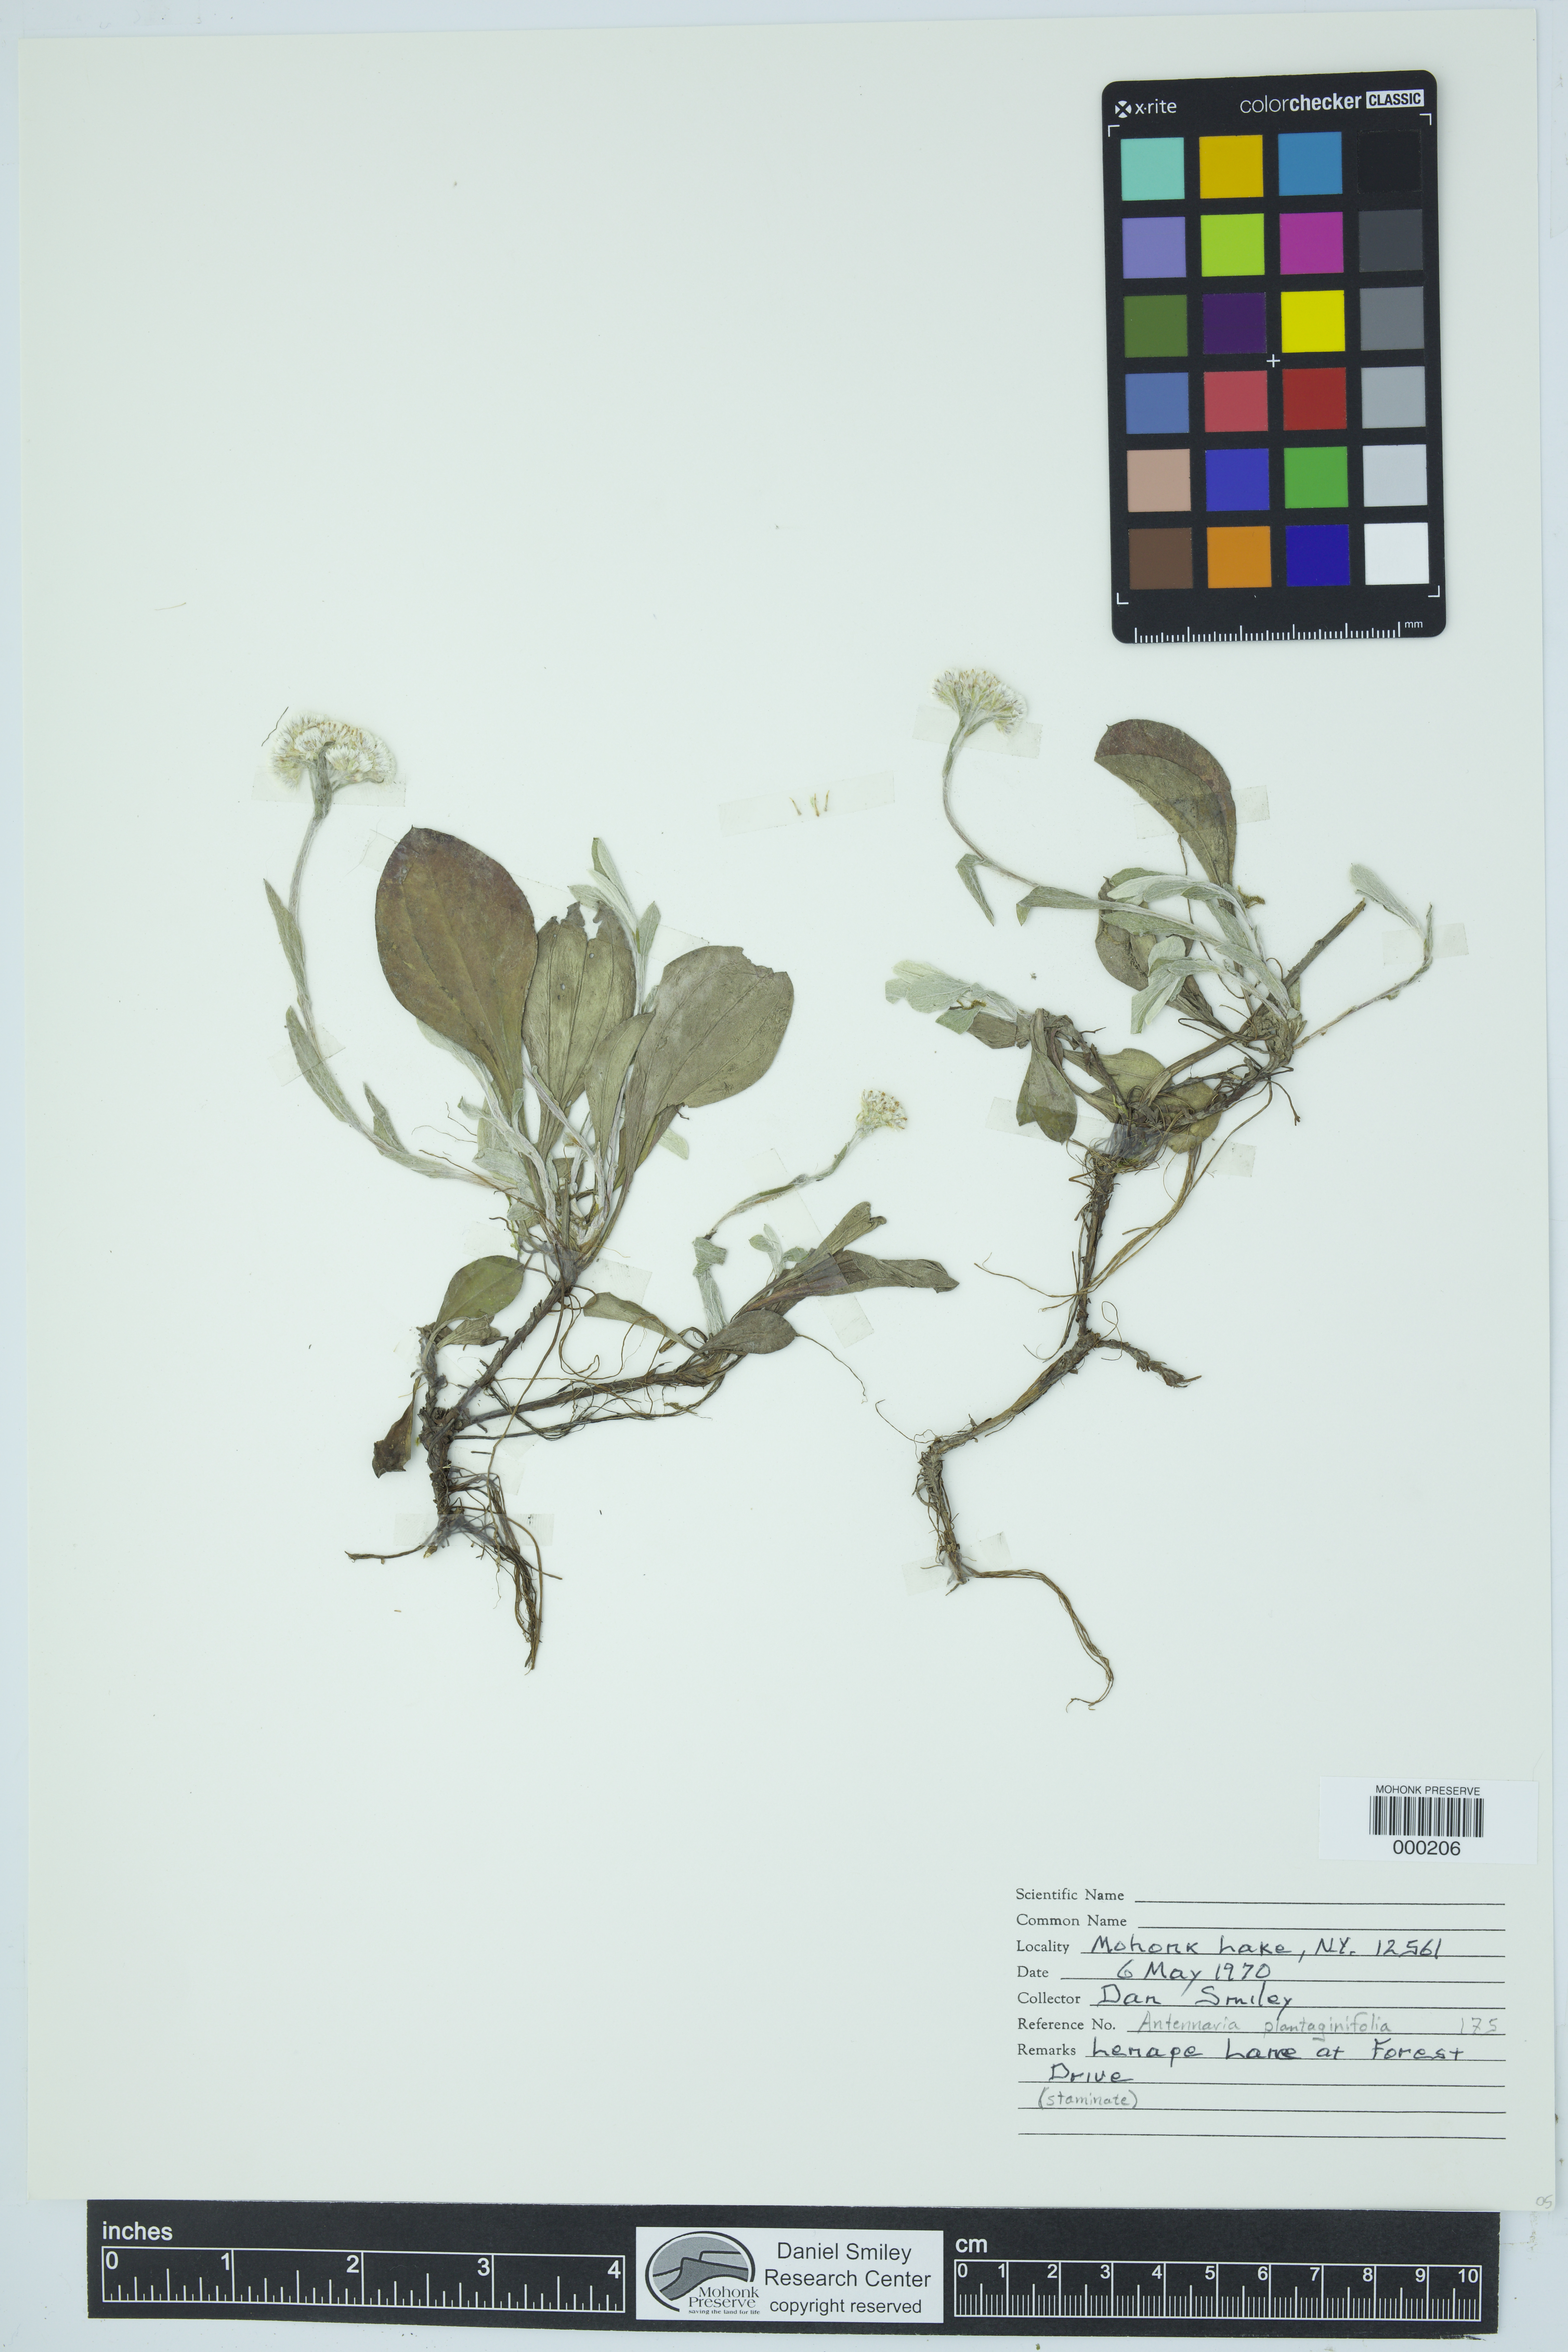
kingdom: Plantae
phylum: Tracheophyta
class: Magnoliopsida
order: Asterales
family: Asteraceae
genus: Antennaria
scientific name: Antennaria plantaginifolia
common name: Plantain-leaved pussytoes
